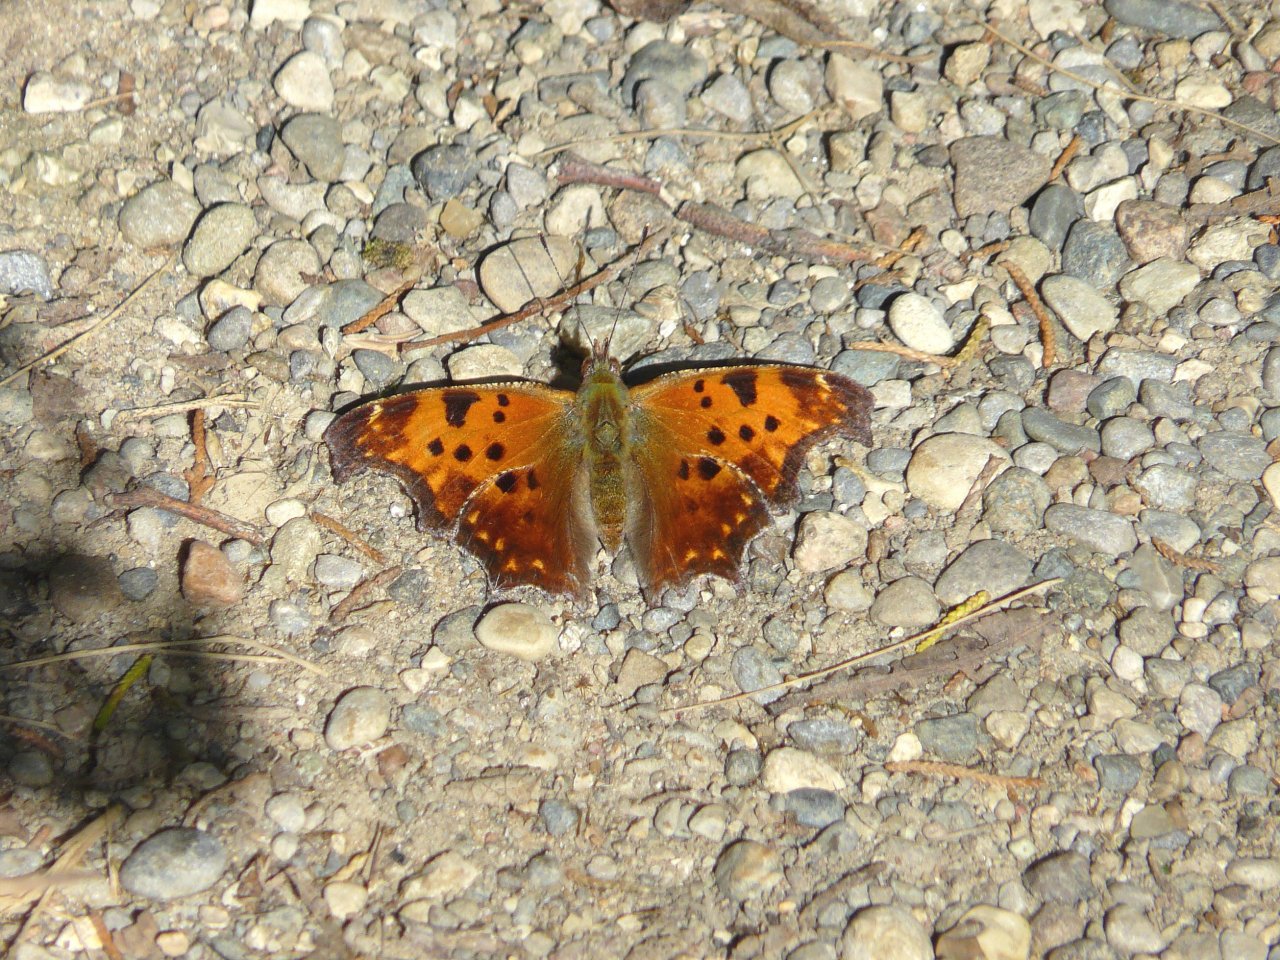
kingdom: Animalia
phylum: Arthropoda
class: Insecta
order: Lepidoptera
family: Nymphalidae
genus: Polygonia
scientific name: Polygonia comma
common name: Eastern Comma
